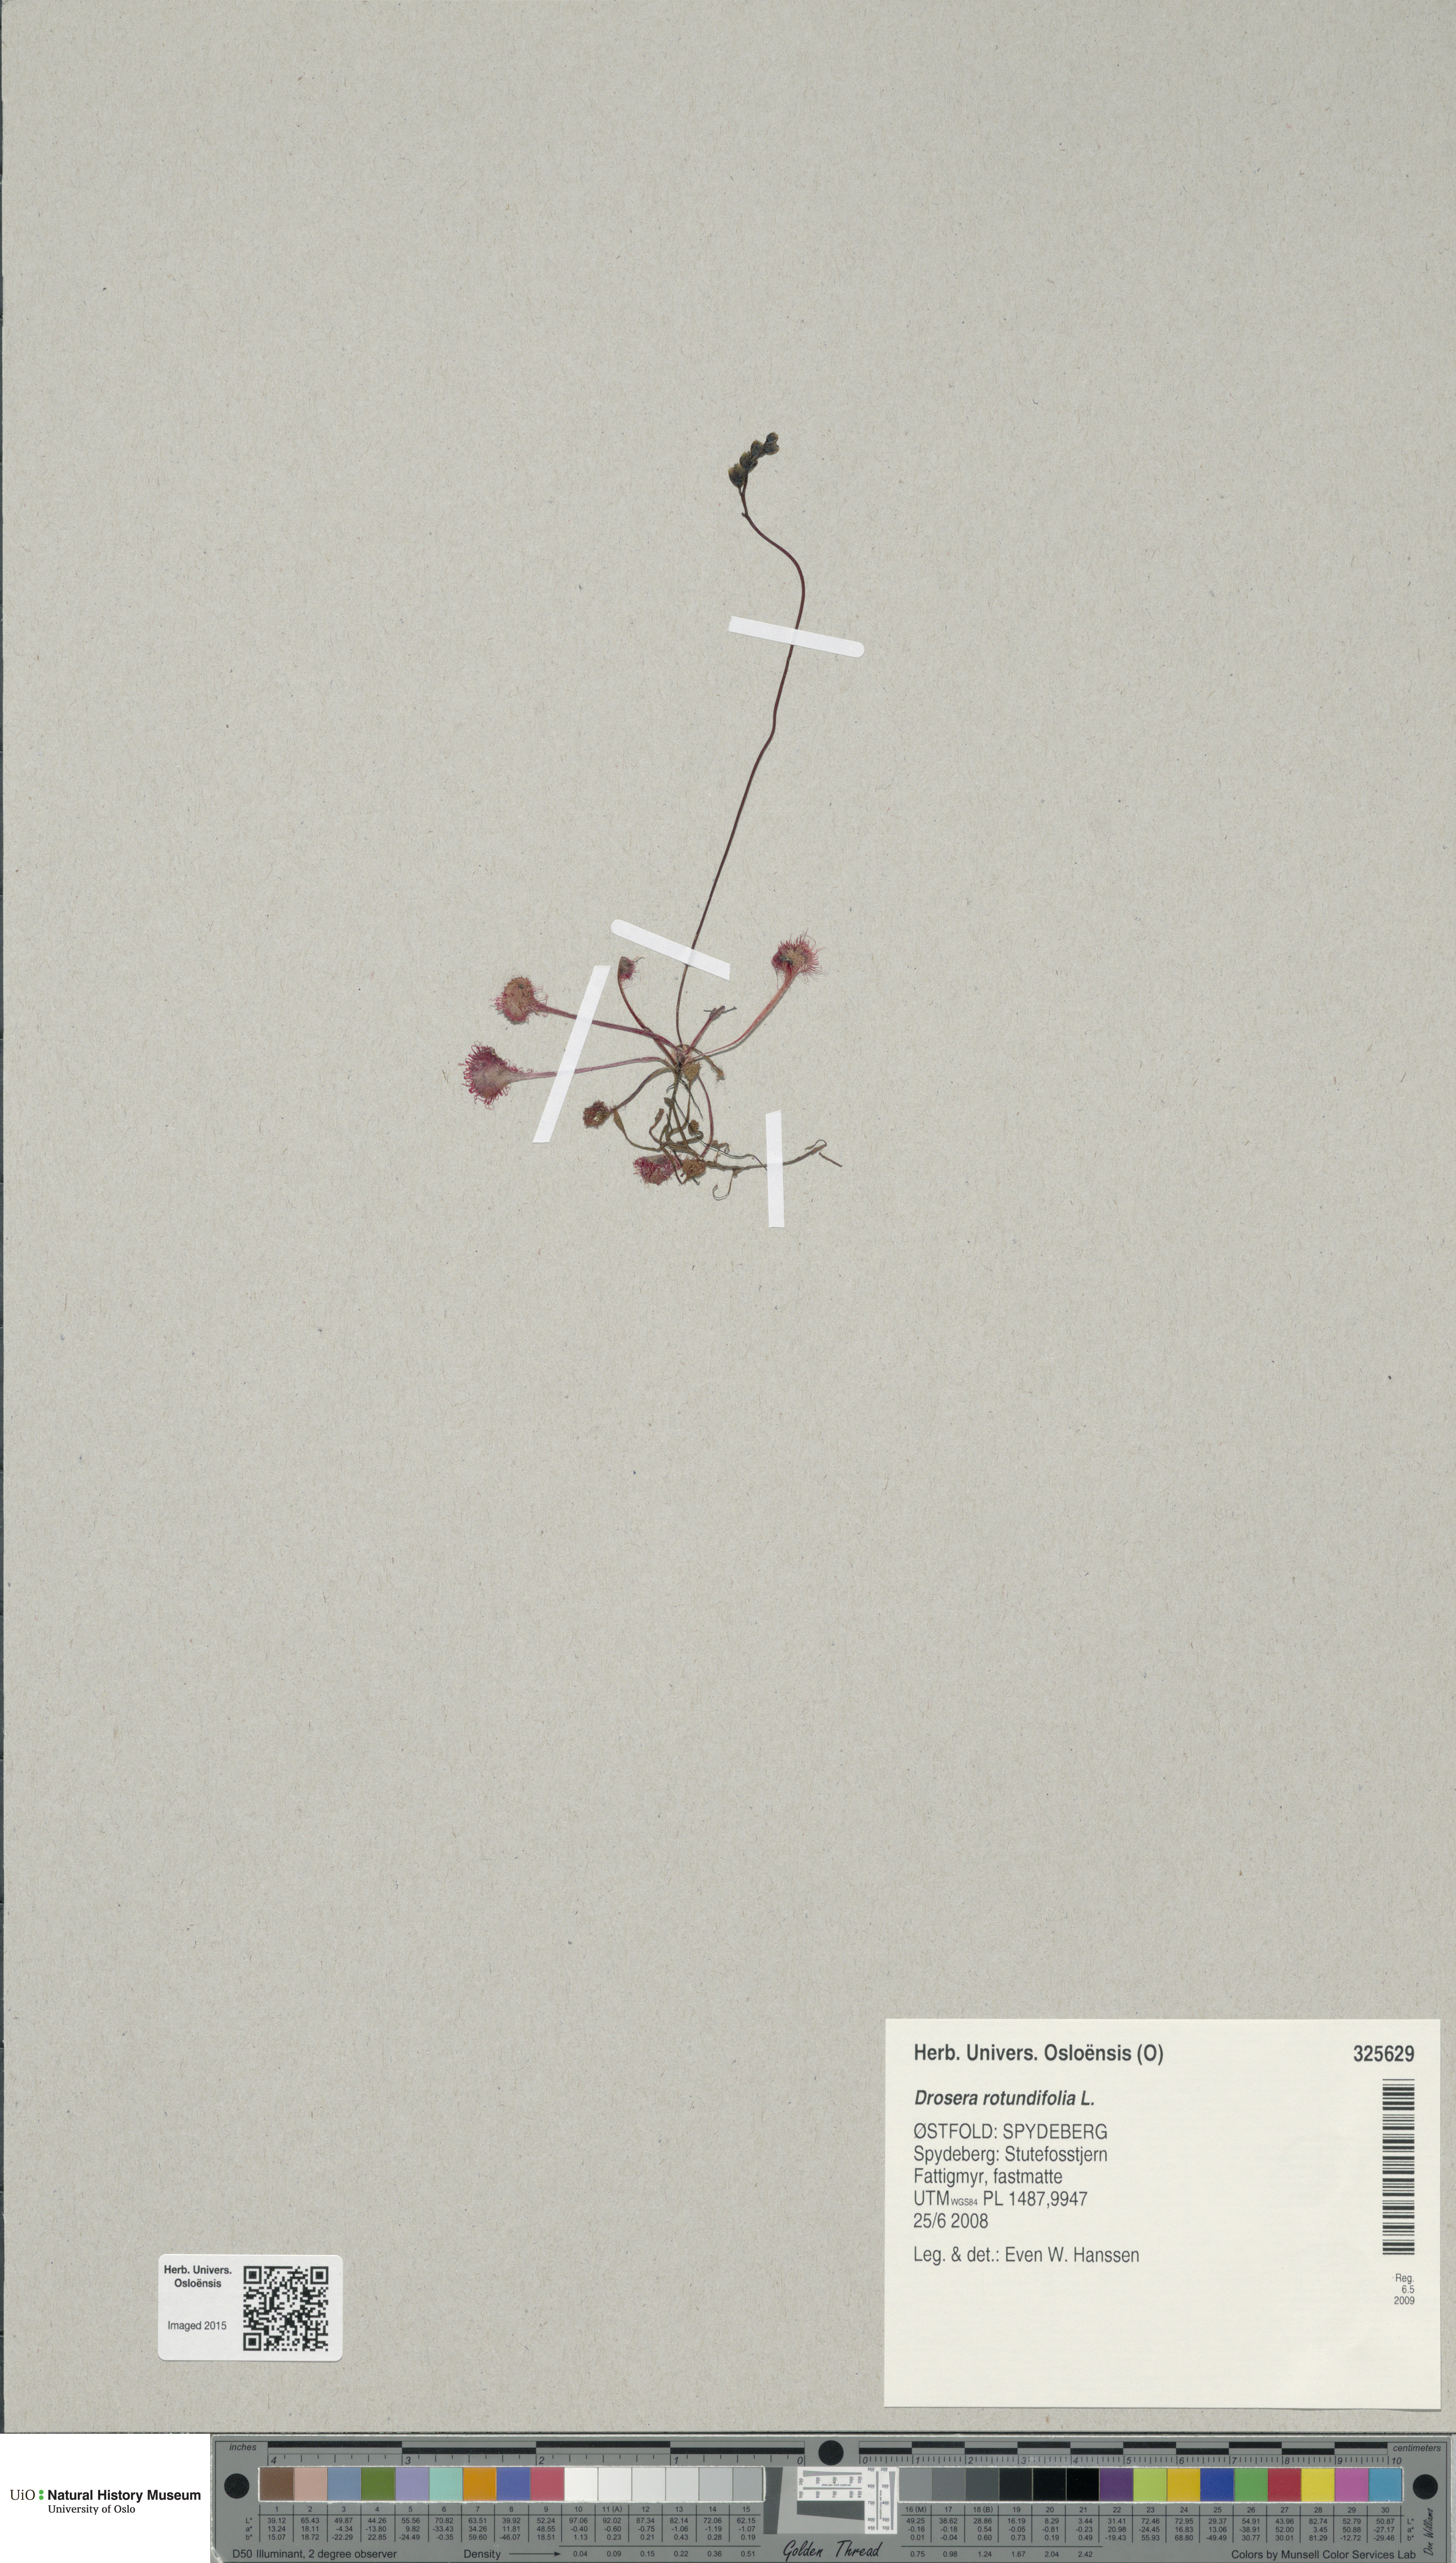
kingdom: Plantae
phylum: Tracheophyta
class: Magnoliopsida
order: Caryophyllales
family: Droseraceae
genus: Drosera
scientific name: Drosera rotundifolia
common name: Round-leaved sundew
